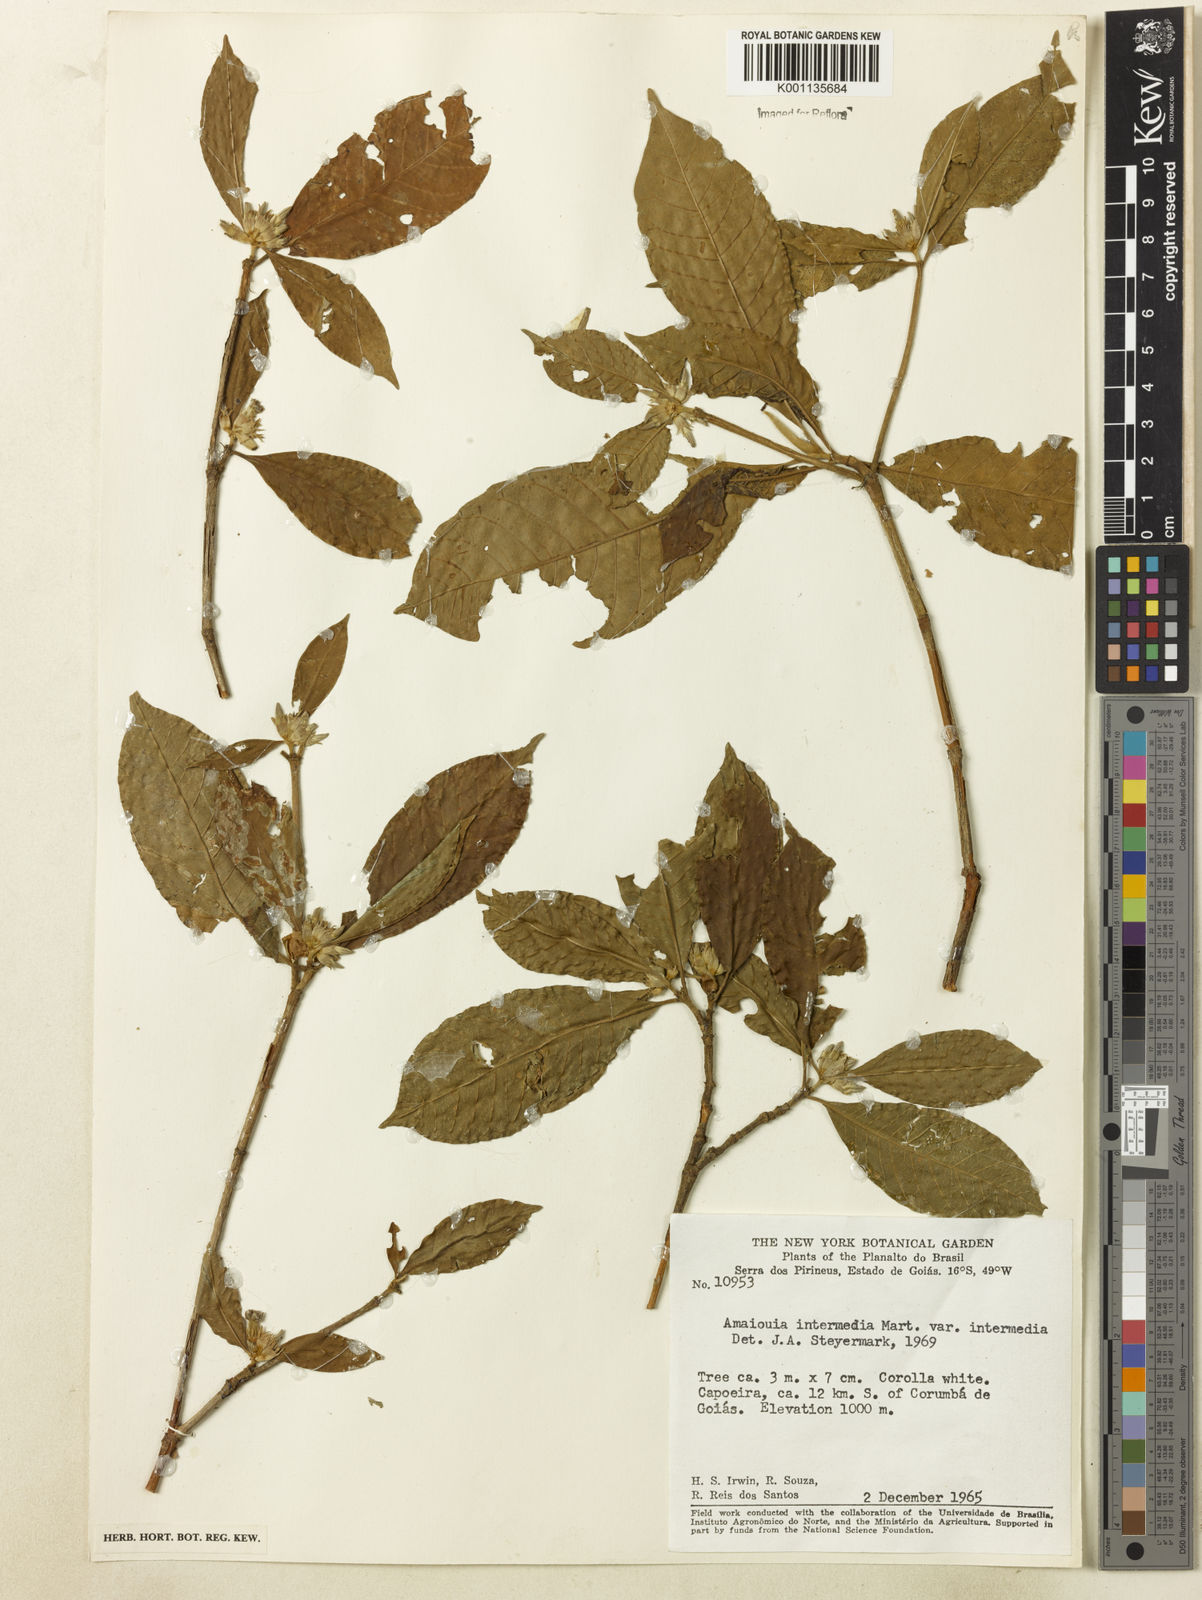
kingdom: Plantae
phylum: Tracheophyta
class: Magnoliopsida
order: Gentianales
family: Rubiaceae
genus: Amaioua
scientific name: Amaioua guianensis
